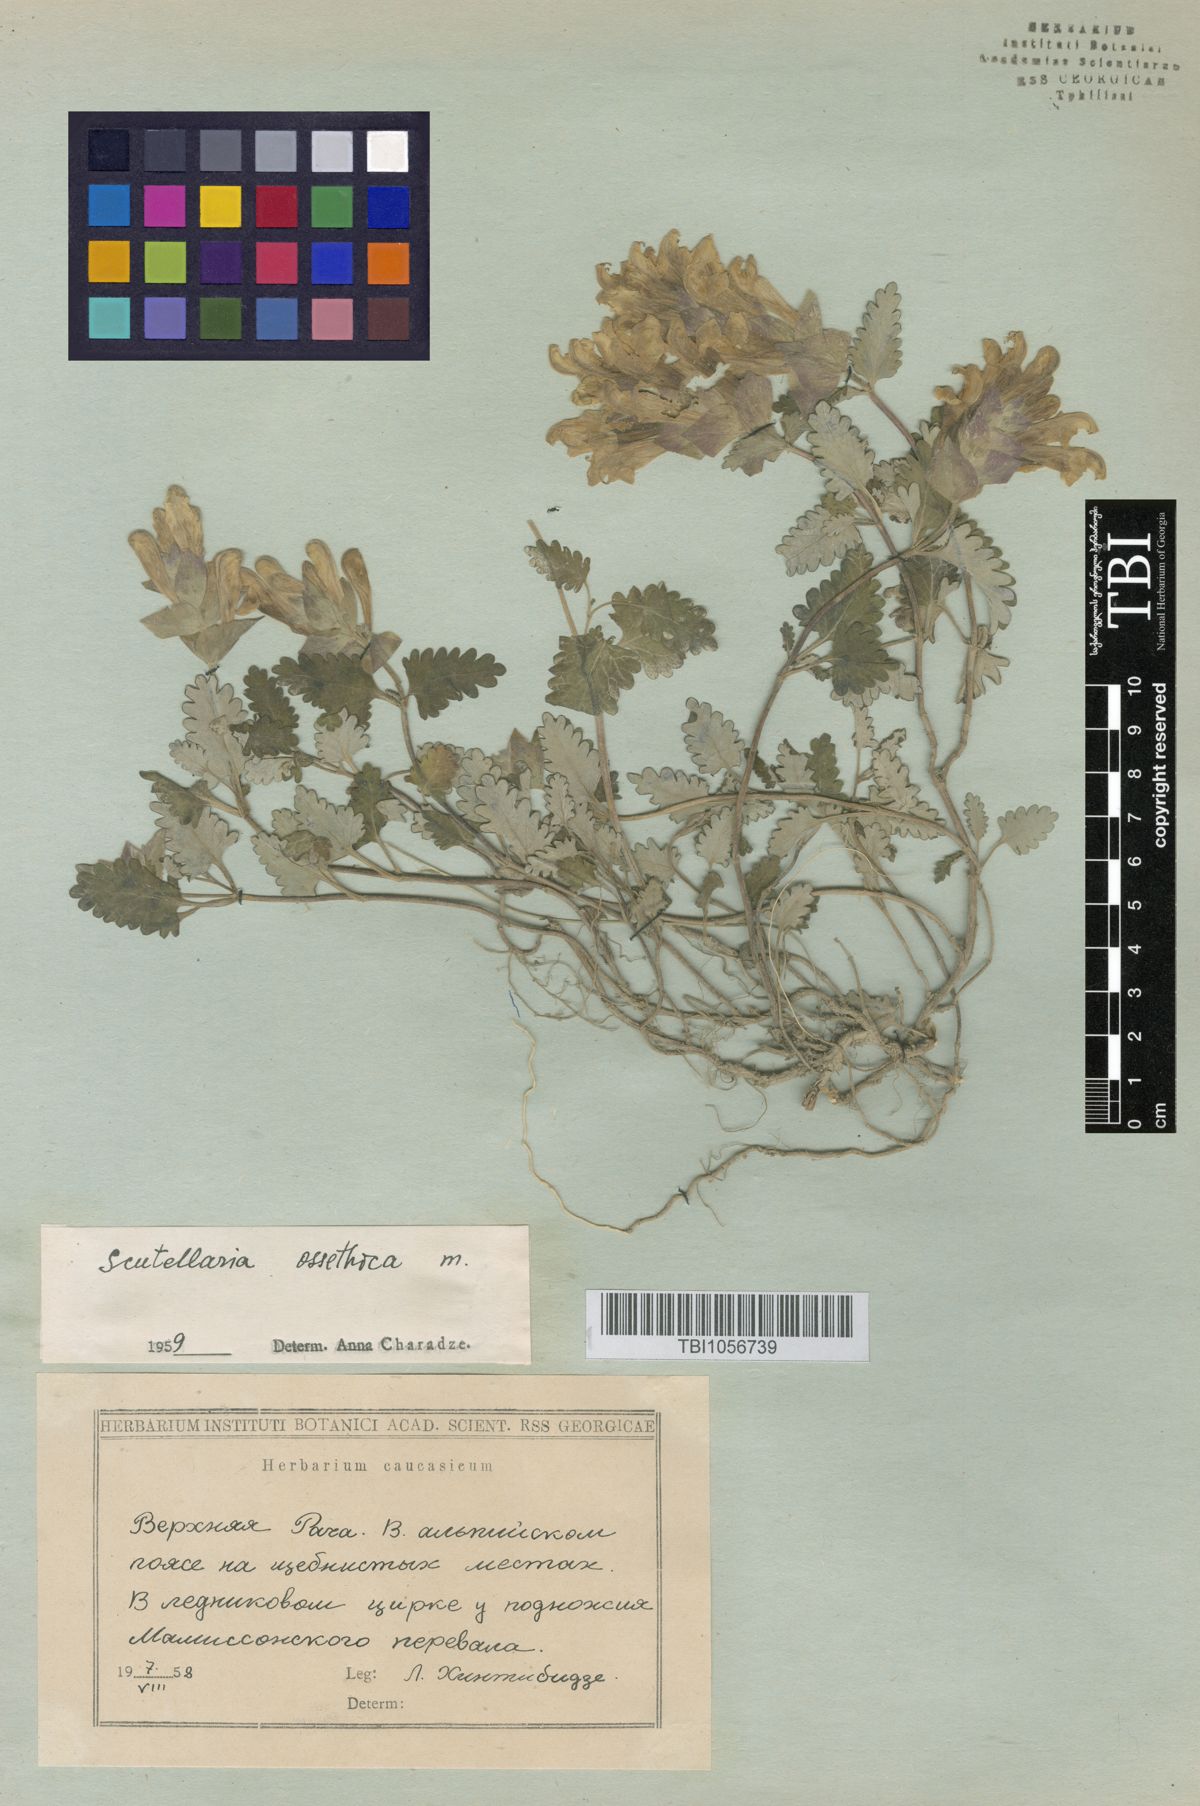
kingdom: Plantae
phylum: Tracheophyta
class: Magnoliopsida
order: Lamiales
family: Lamiaceae
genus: Scutellaria
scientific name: Scutellaria ossethica
